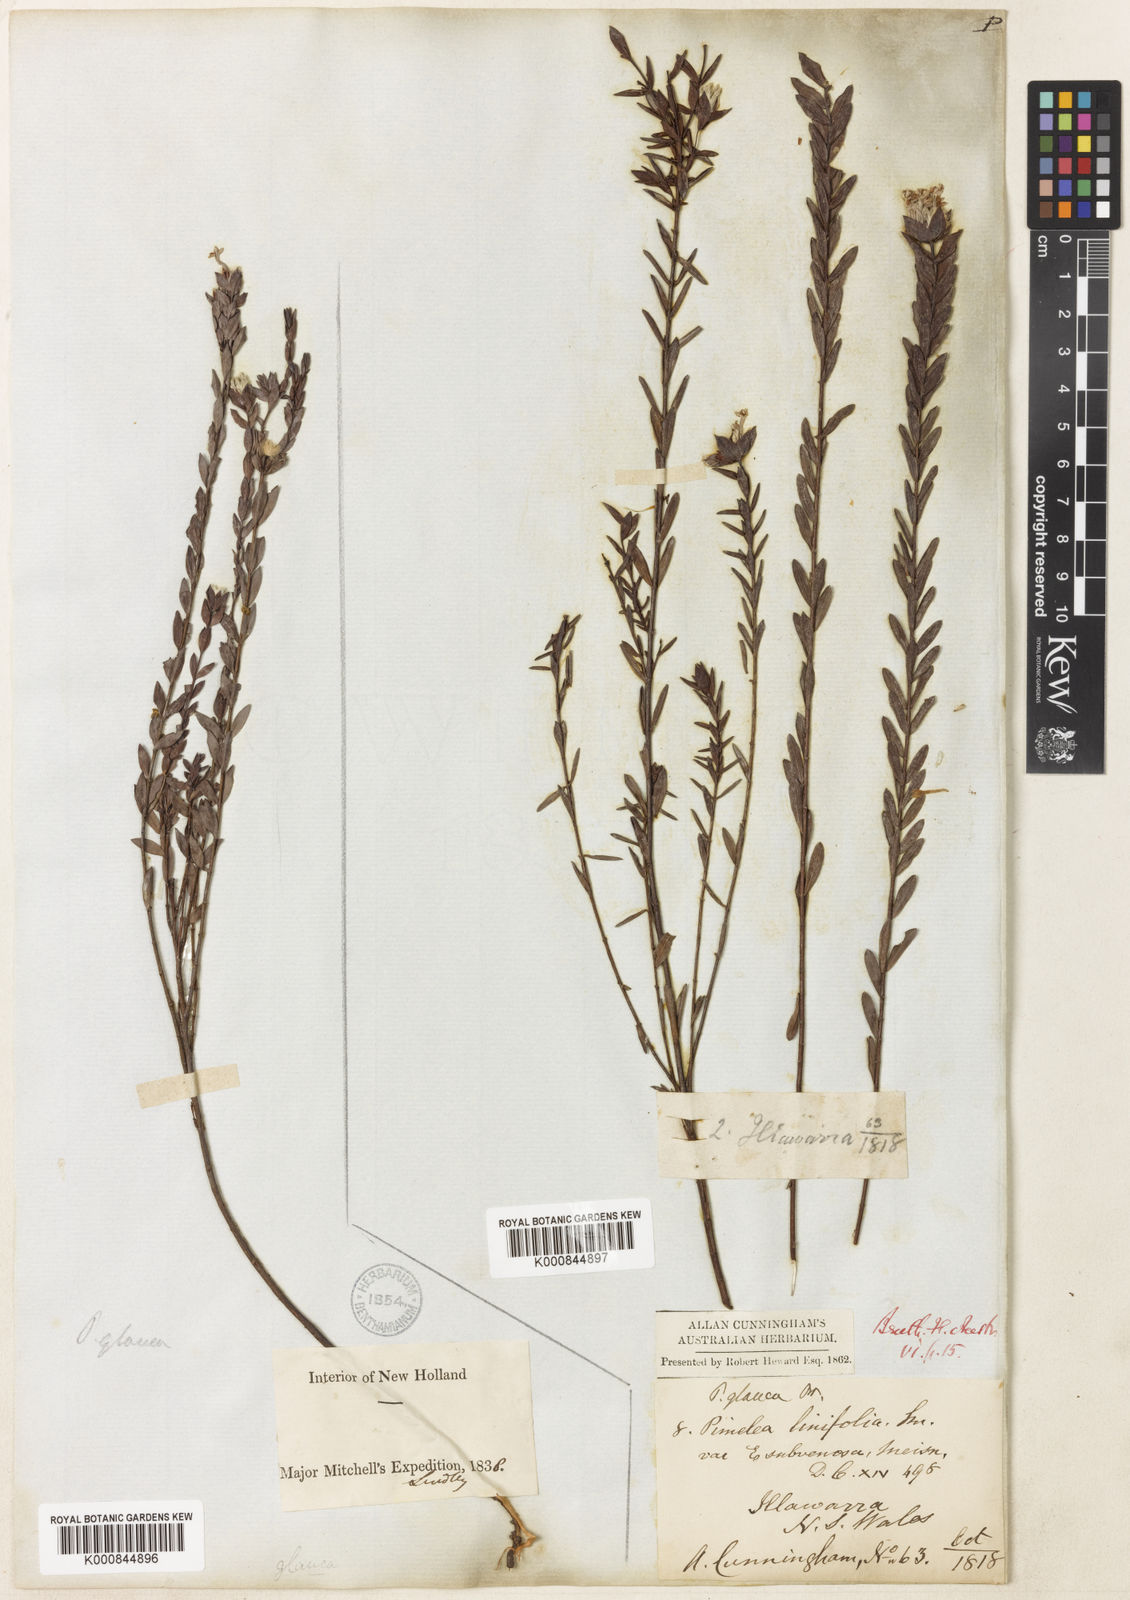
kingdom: Plantae
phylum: Tracheophyta
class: Magnoliopsida
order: Malvales
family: Thymelaeaceae
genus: Pimelea
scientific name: Pimelea glauca
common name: Smooth riceflower
